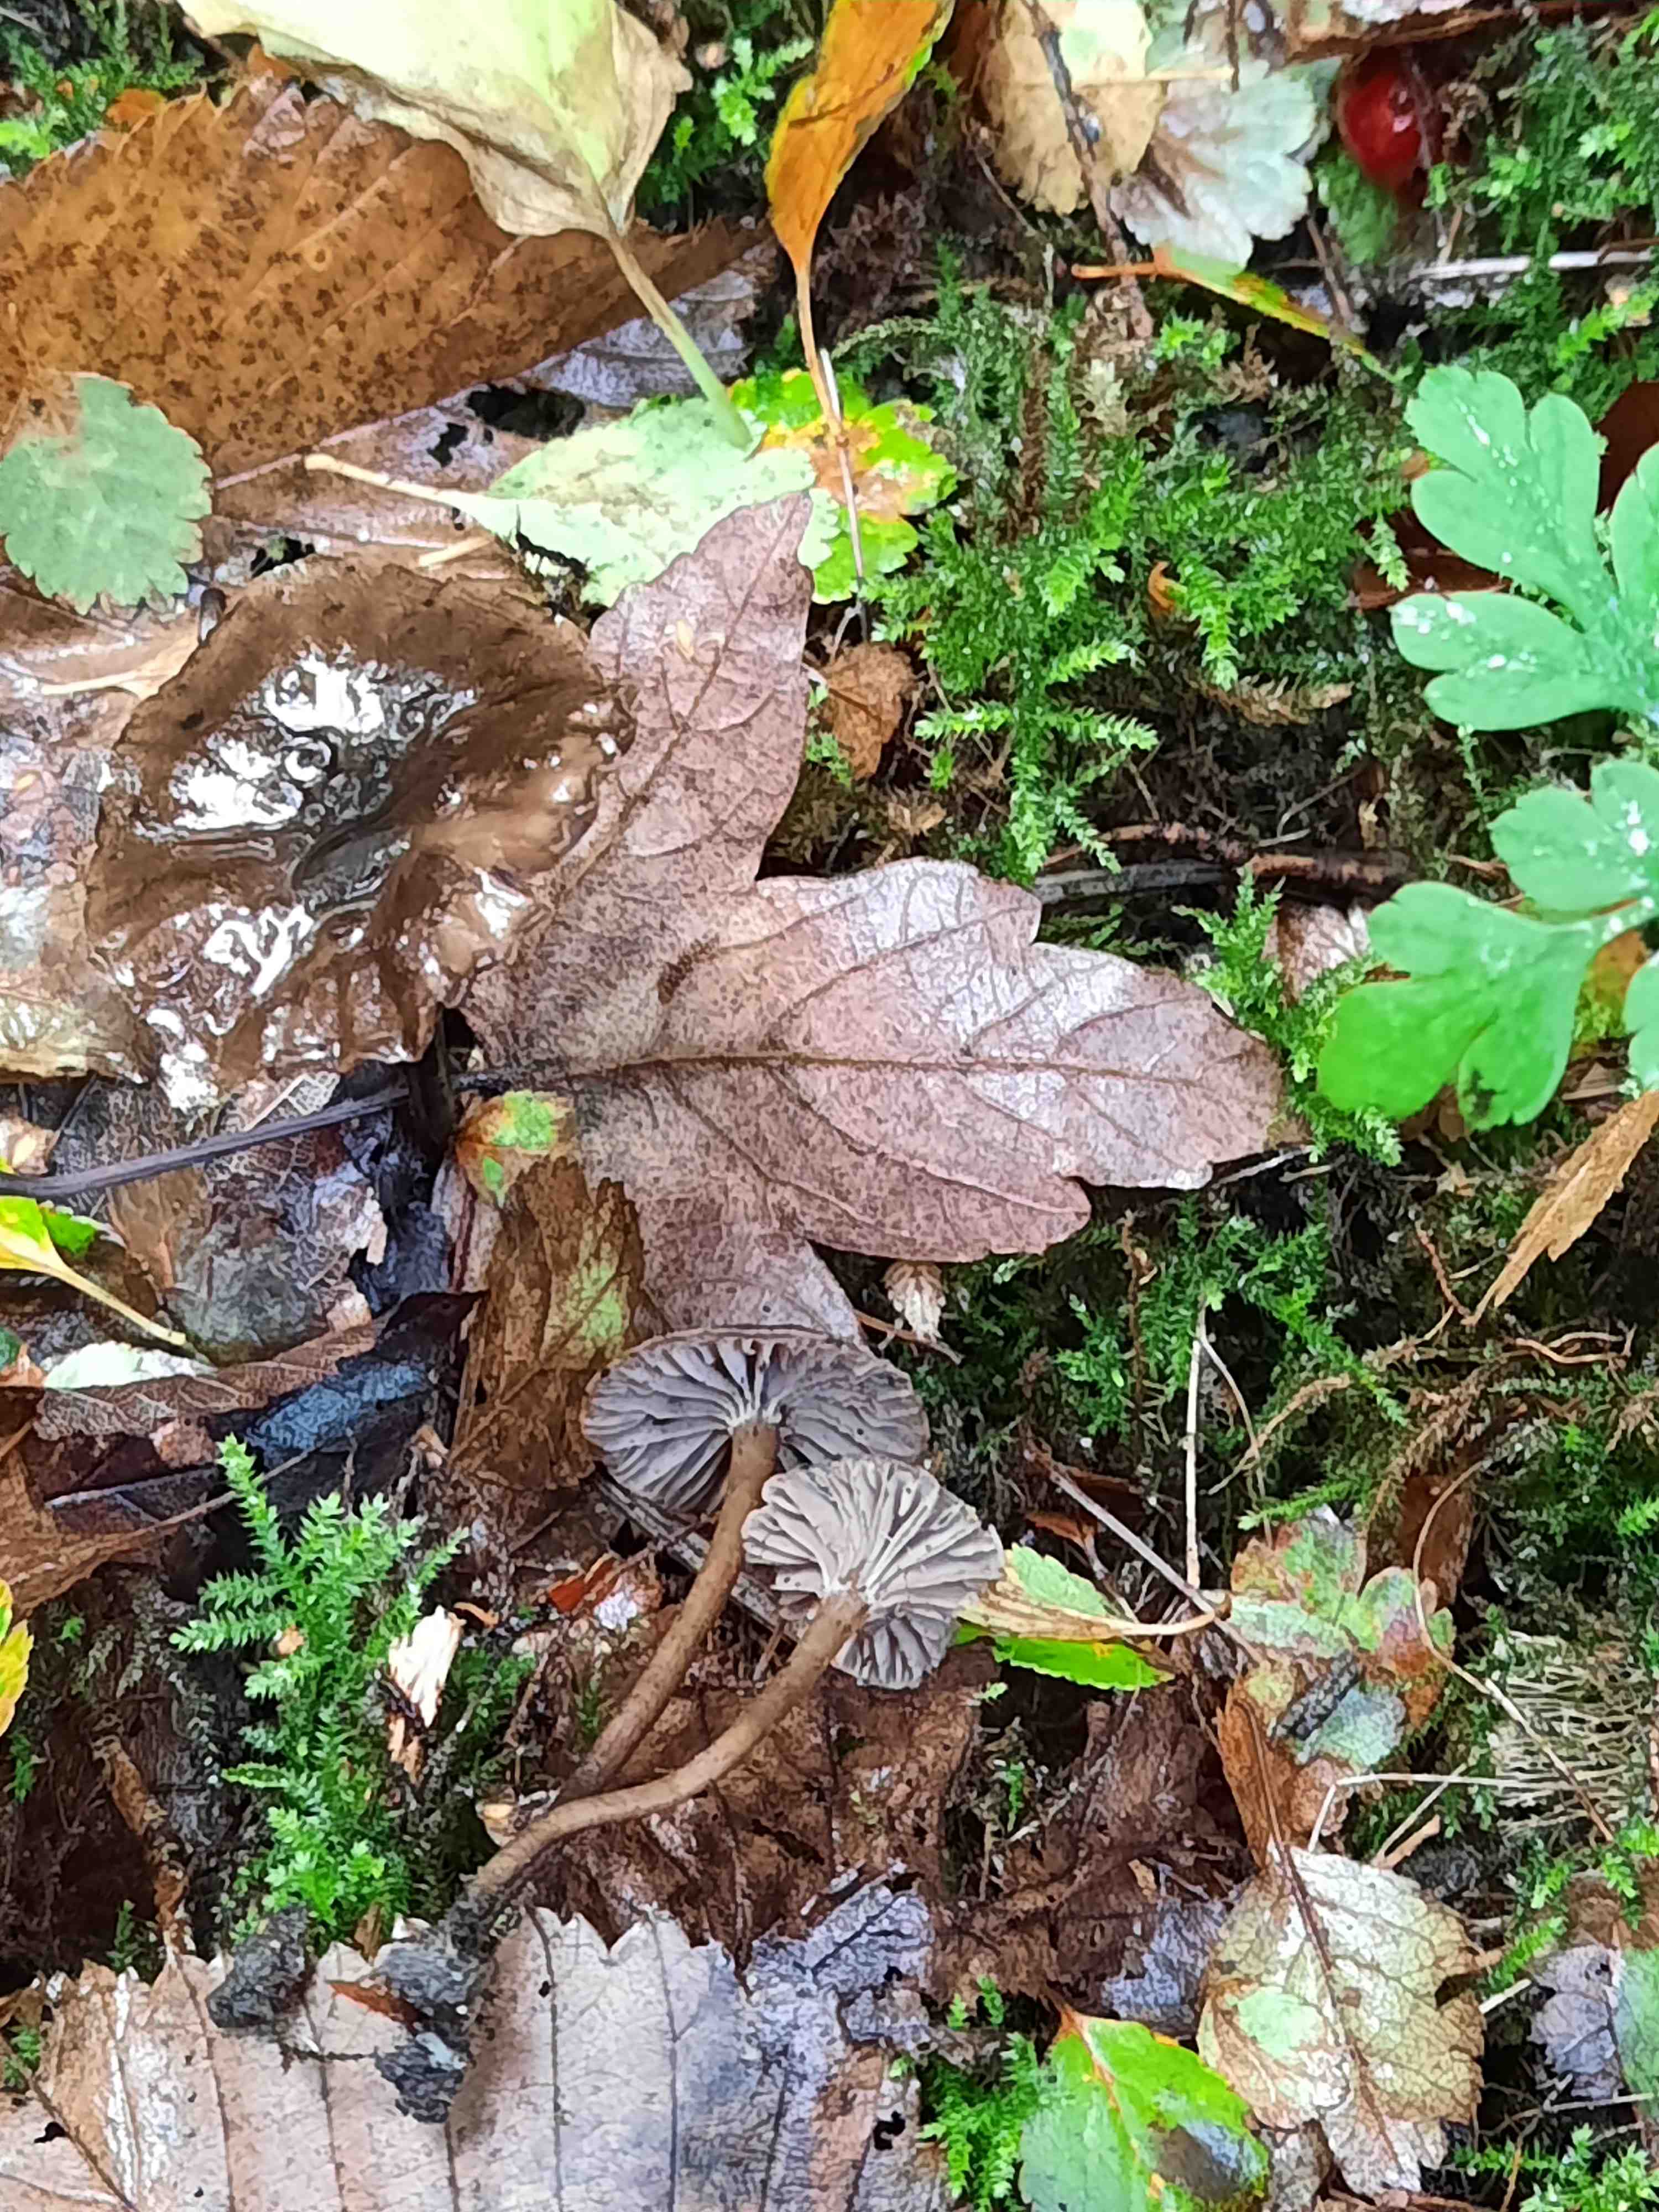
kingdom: Fungi
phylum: Basidiomycota
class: Agaricomycetes
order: Agaricales
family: Clavariaceae
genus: Hodophilus
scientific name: Hodophilus foetens
